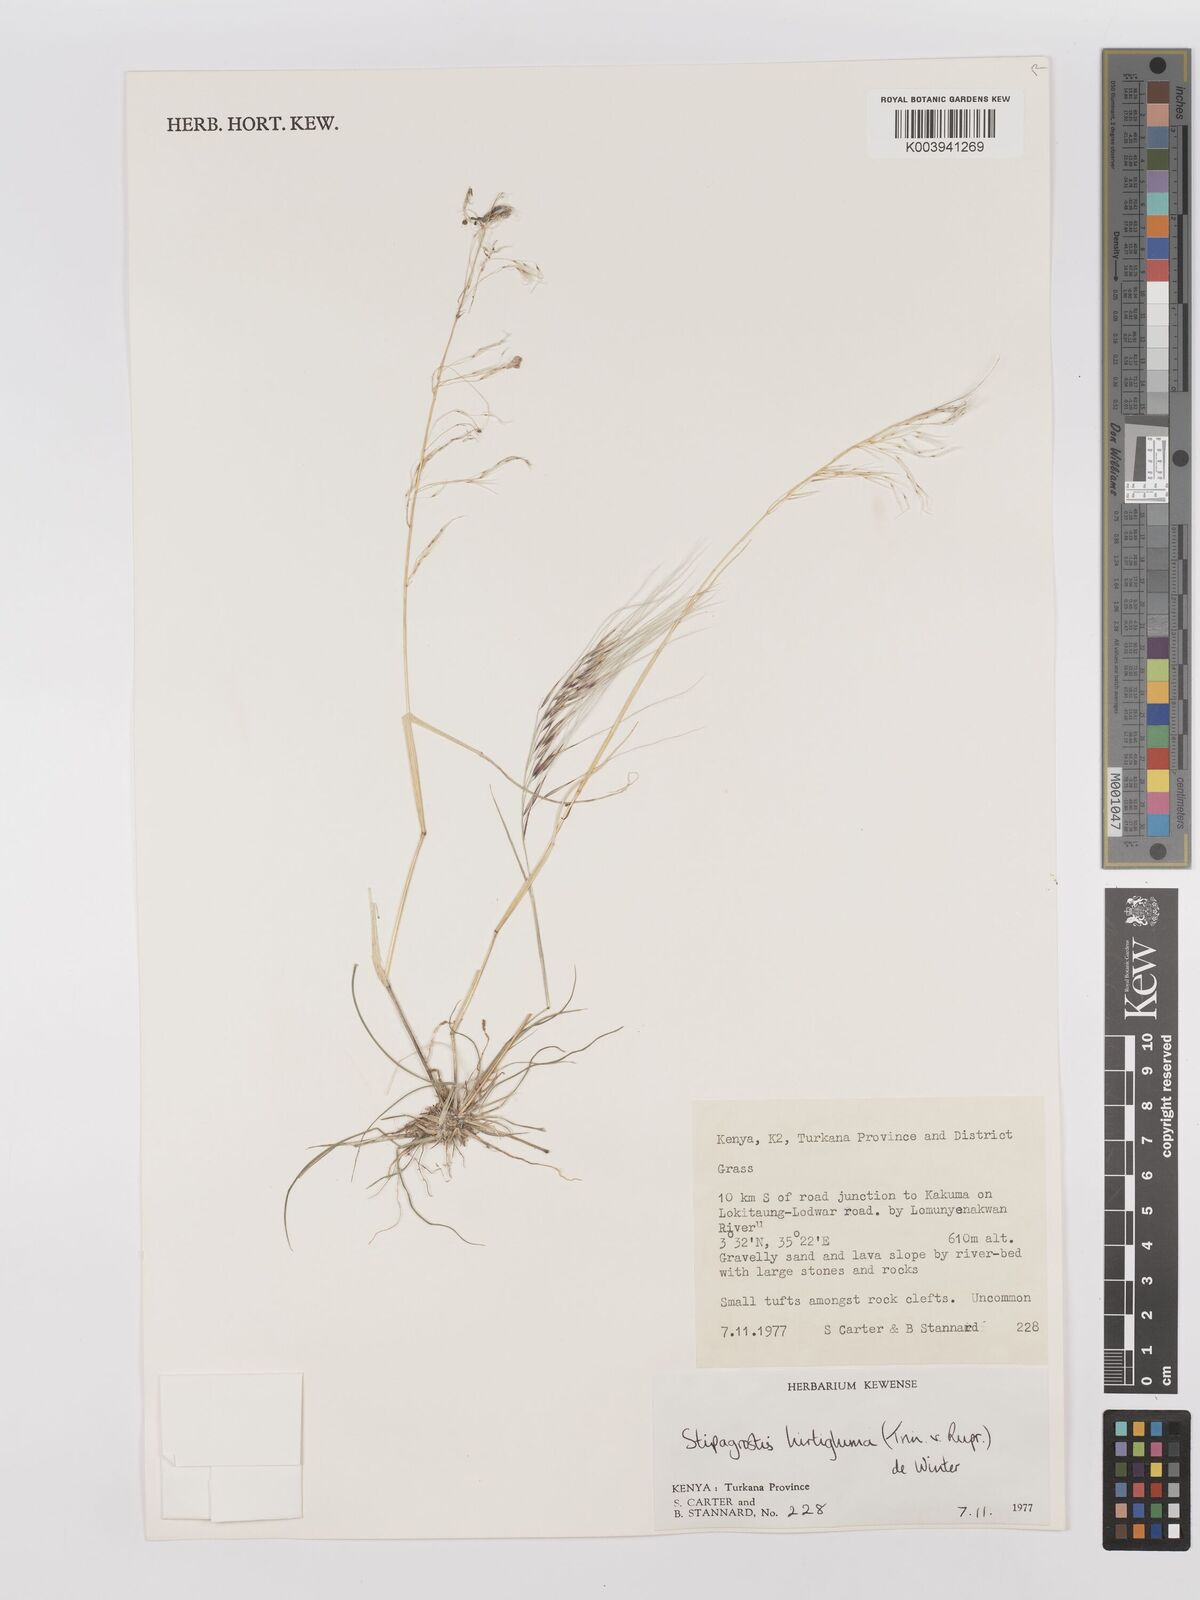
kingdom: Plantae
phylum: Tracheophyta
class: Liliopsida
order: Poales
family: Poaceae
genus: Stipagrostis
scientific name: Stipagrostis hirtigluma
